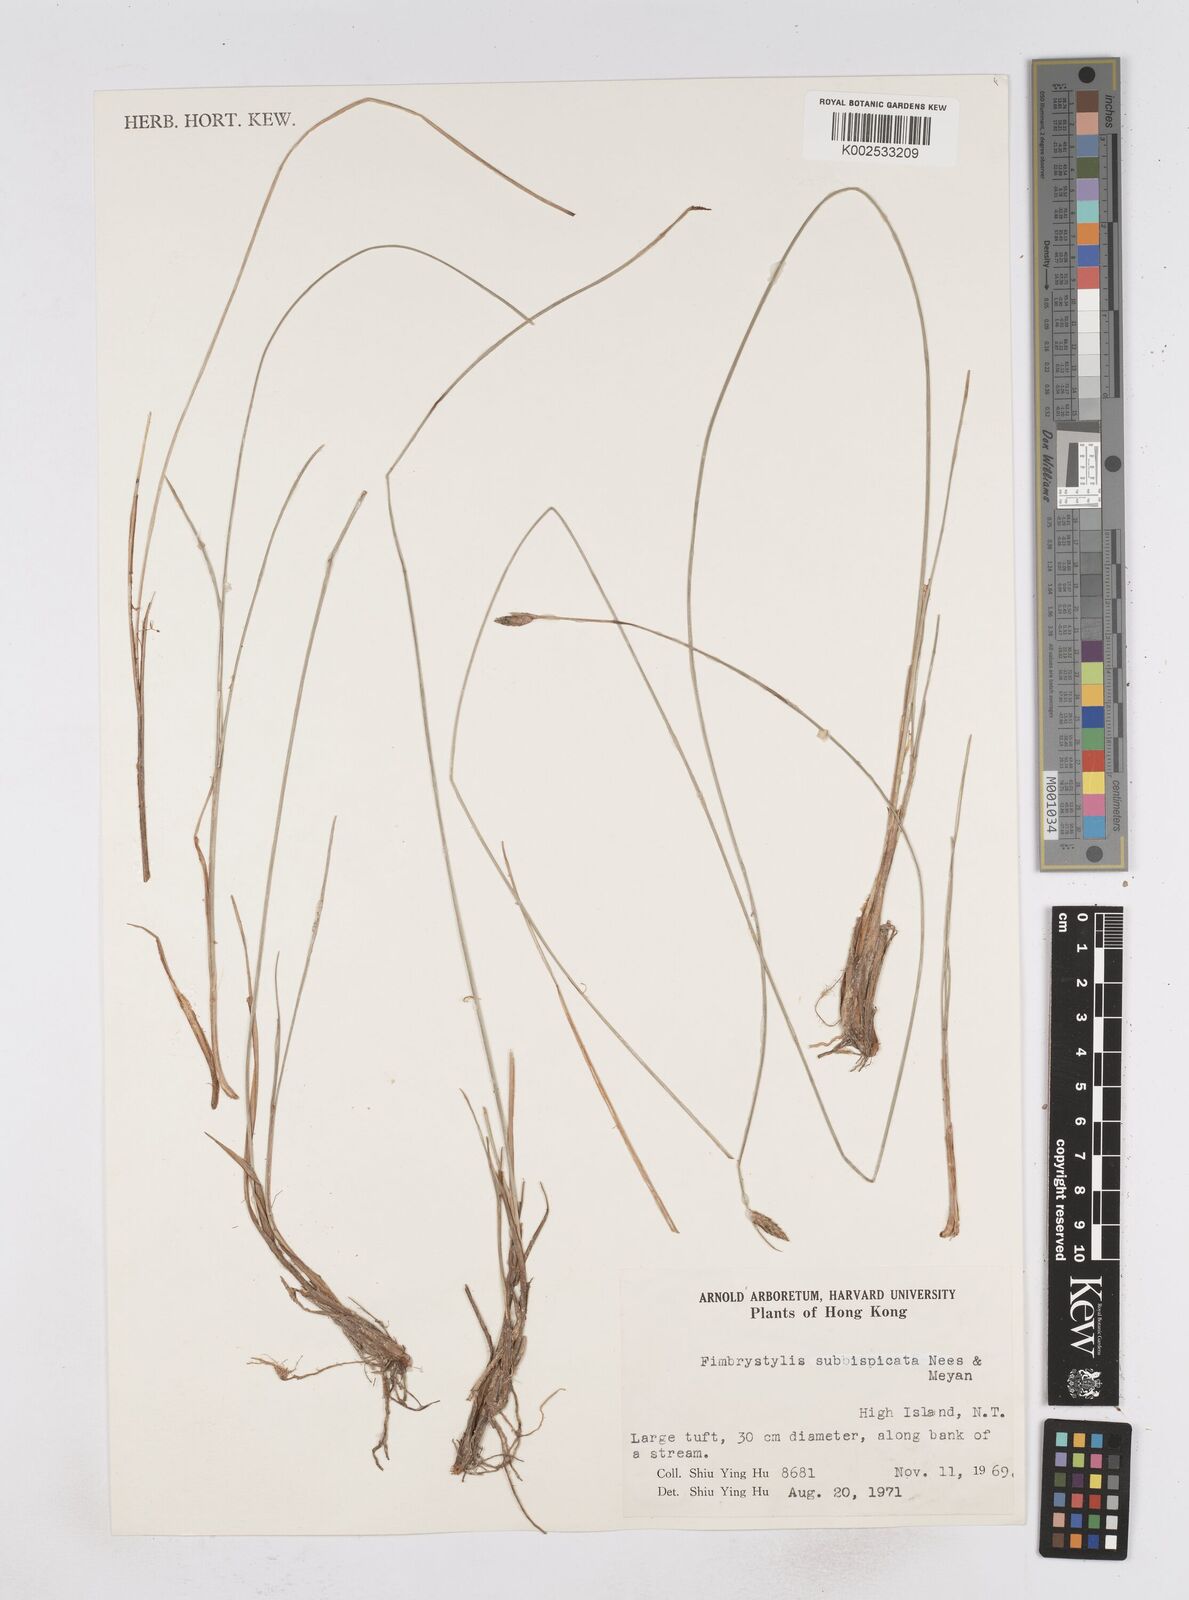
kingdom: Plantae
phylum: Tracheophyta
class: Liliopsida
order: Poales
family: Cyperaceae
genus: Fimbristylis
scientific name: Fimbristylis tristachya
